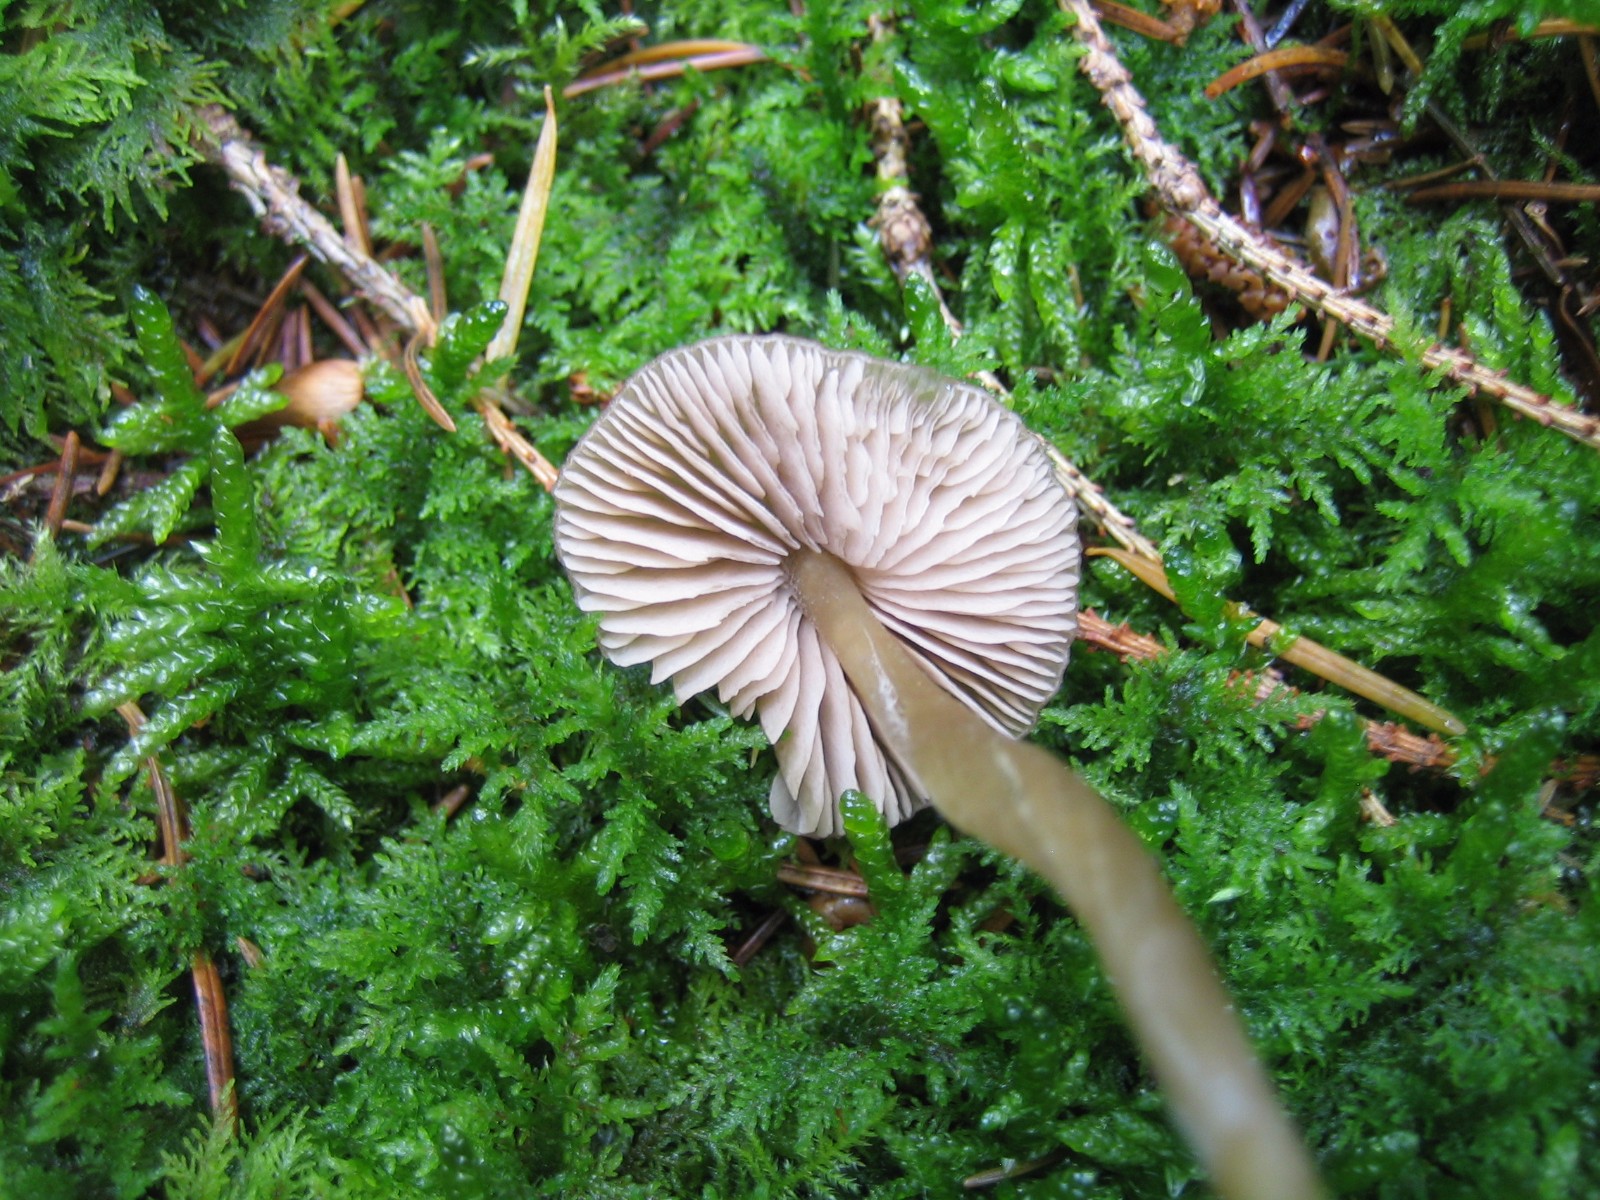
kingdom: Fungi
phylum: Basidiomycota
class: Agaricomycetes
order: Agaricales
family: Entolomataceae
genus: Entoloma
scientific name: Entoloma cetratum
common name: voks-rødblad
